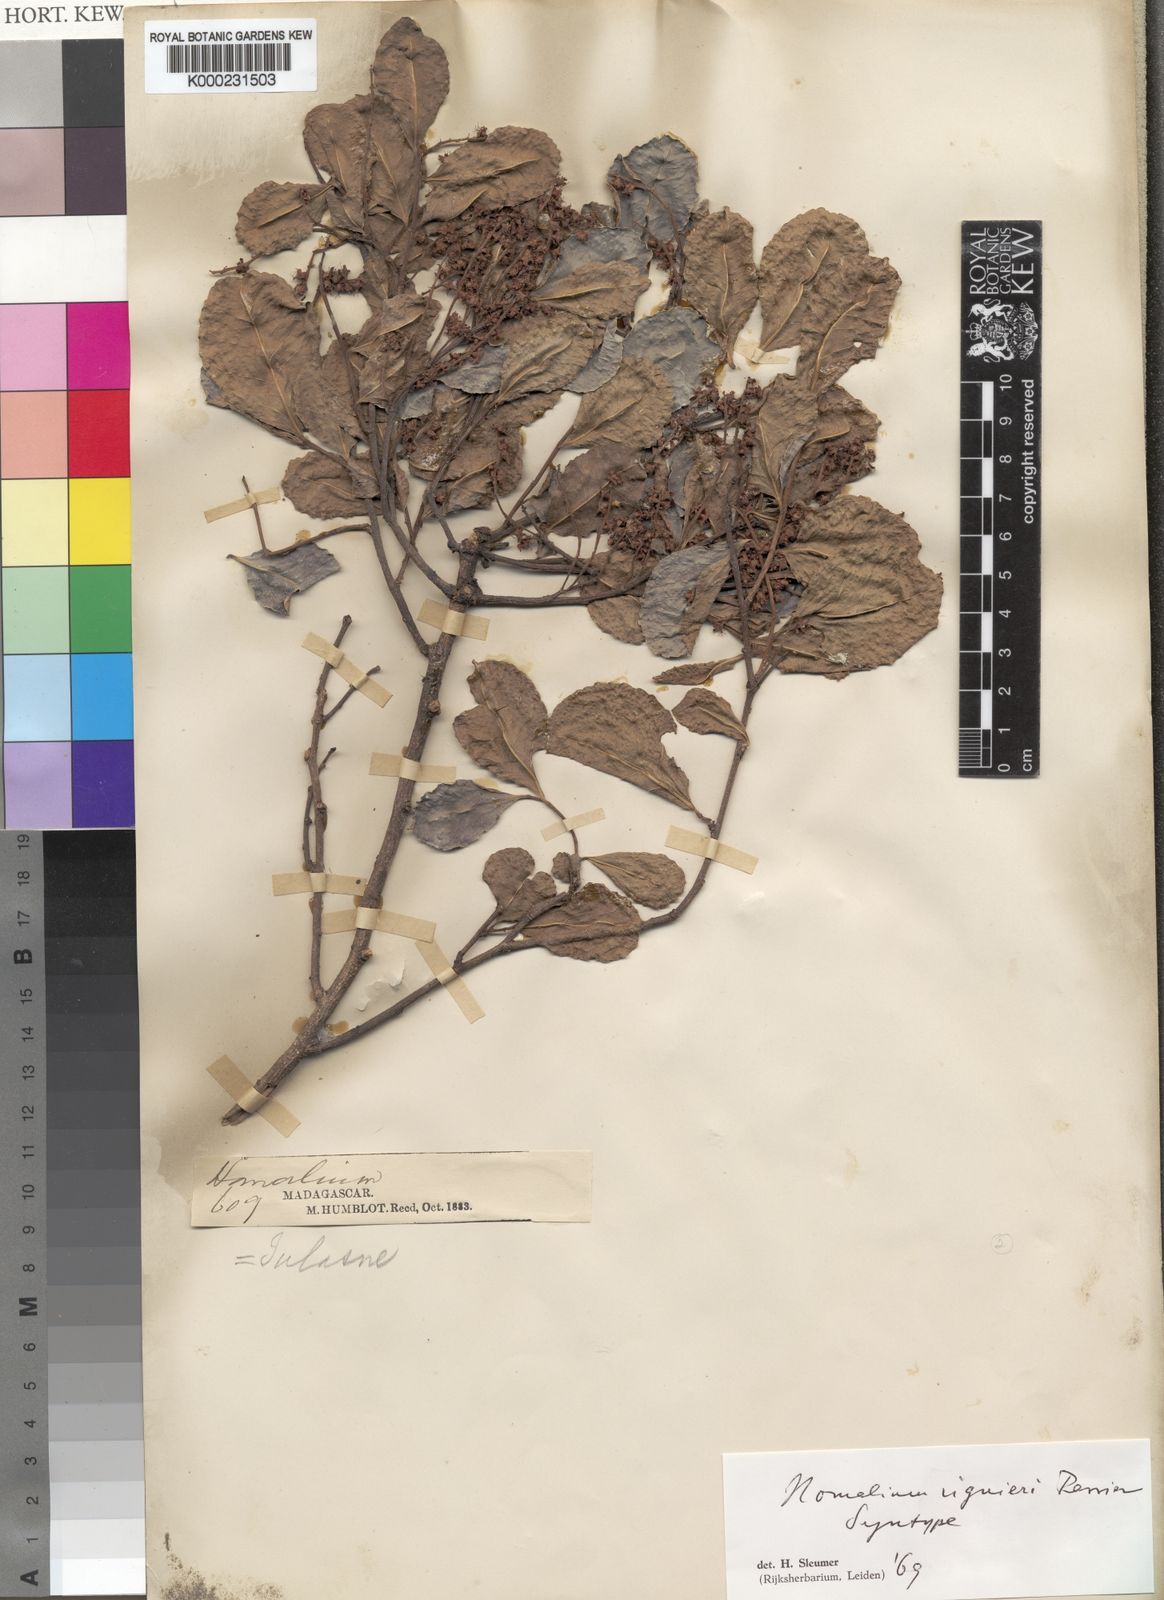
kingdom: Plantae
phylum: Tracheophyta
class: Magnoliopsida
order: Malpighiales
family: Salicaceae
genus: Homalium
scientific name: Homalium viguieri
